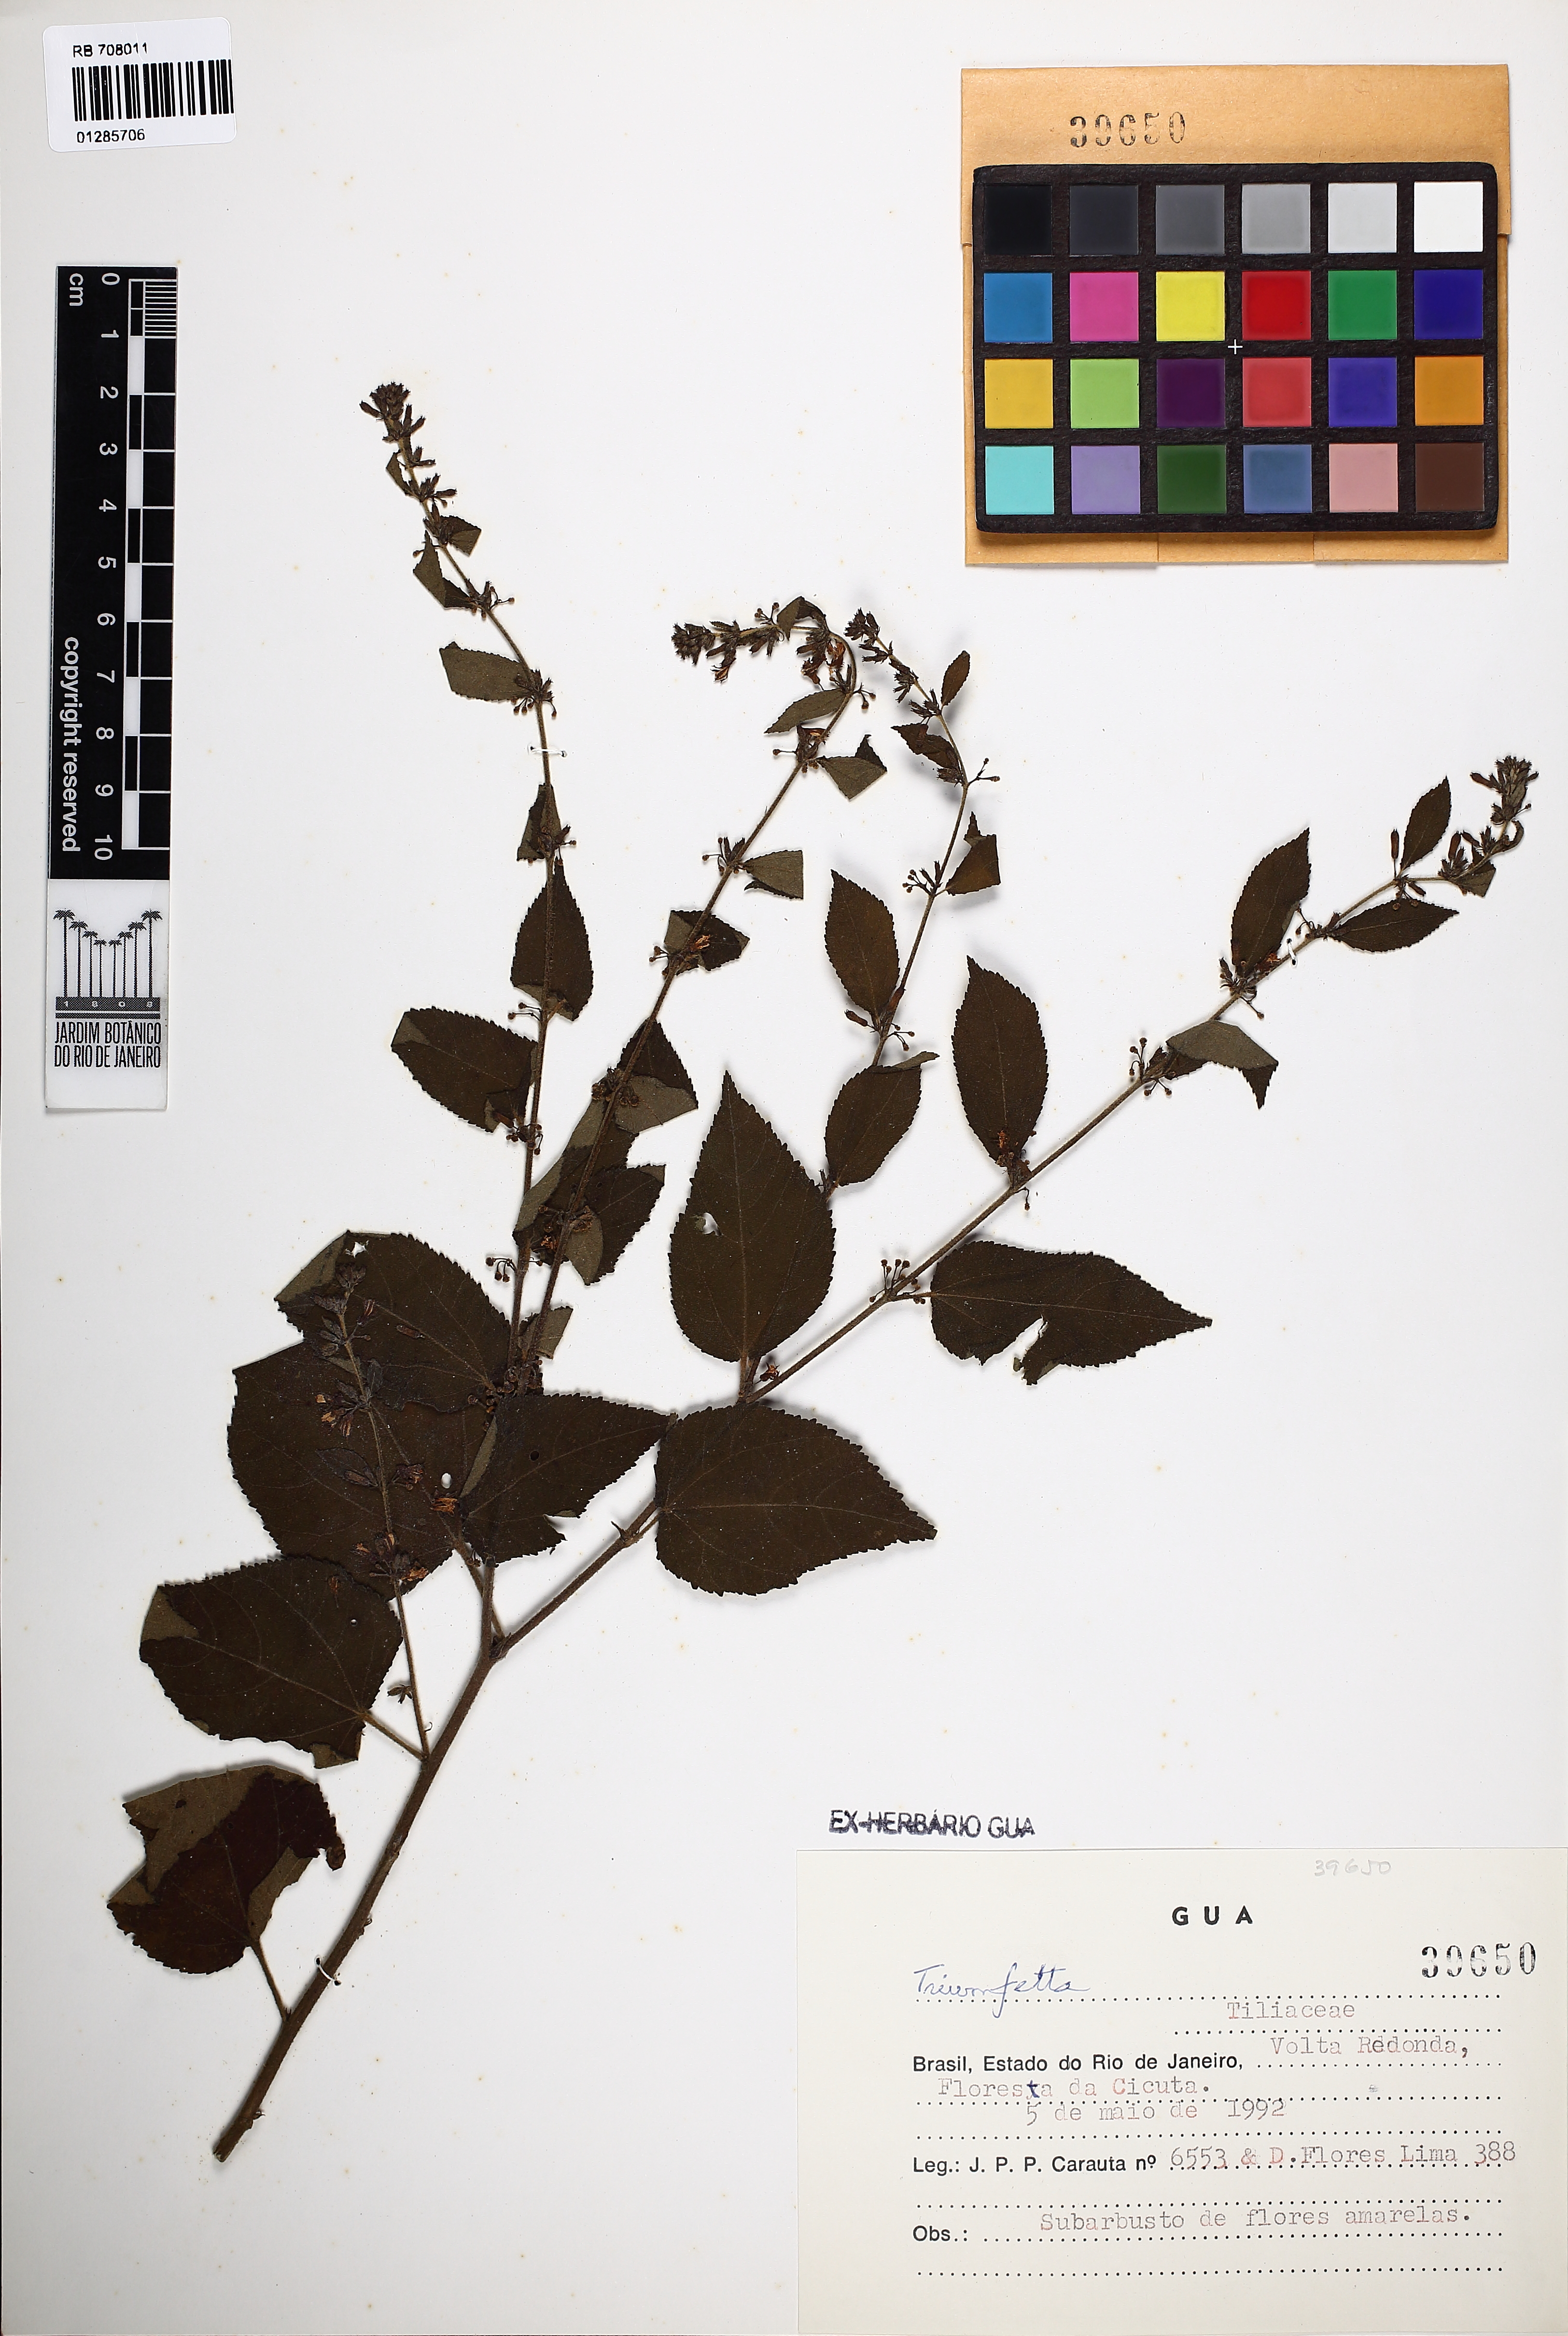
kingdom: Plantae
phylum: Tracheophyta
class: Magnoliopsida
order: Malvales
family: Malvaceae
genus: Triumfetta
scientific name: Triumfetta
